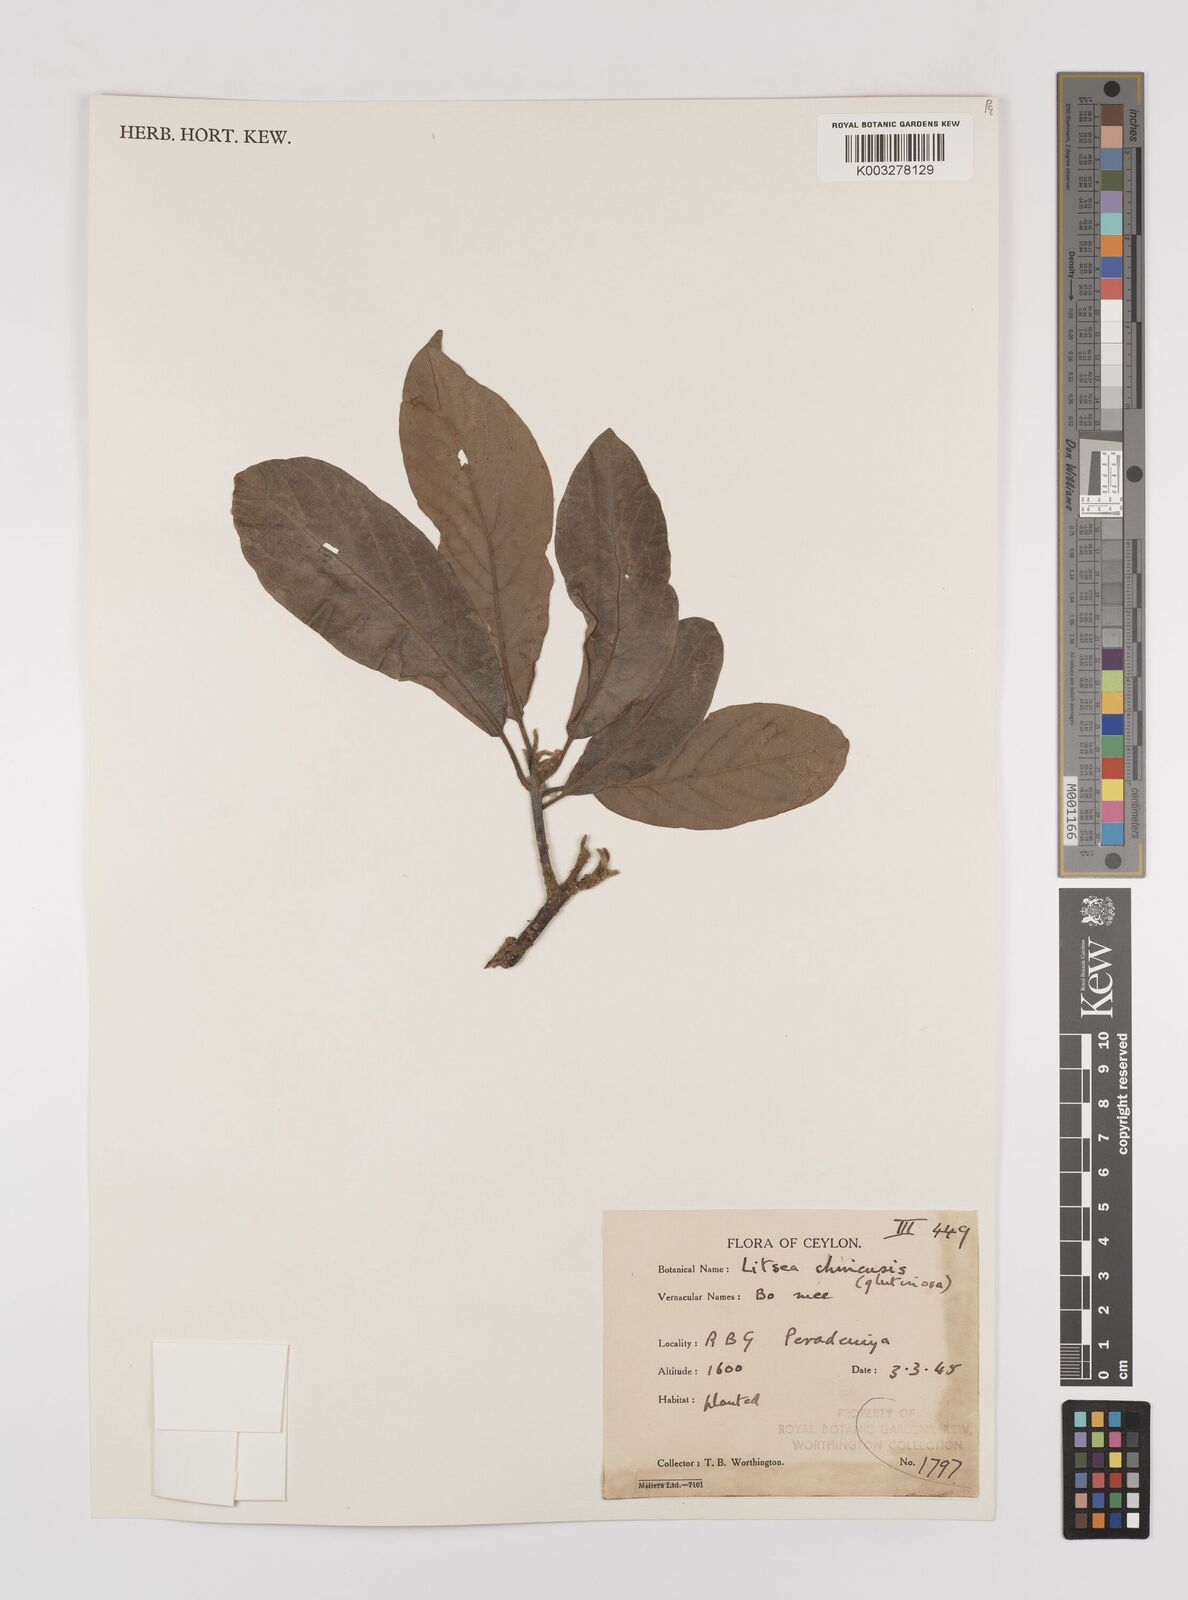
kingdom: Plantae
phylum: Tracheophyta
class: Magnoliopsida
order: Laurales
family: Lauraceae
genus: Litsea
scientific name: Litsea
